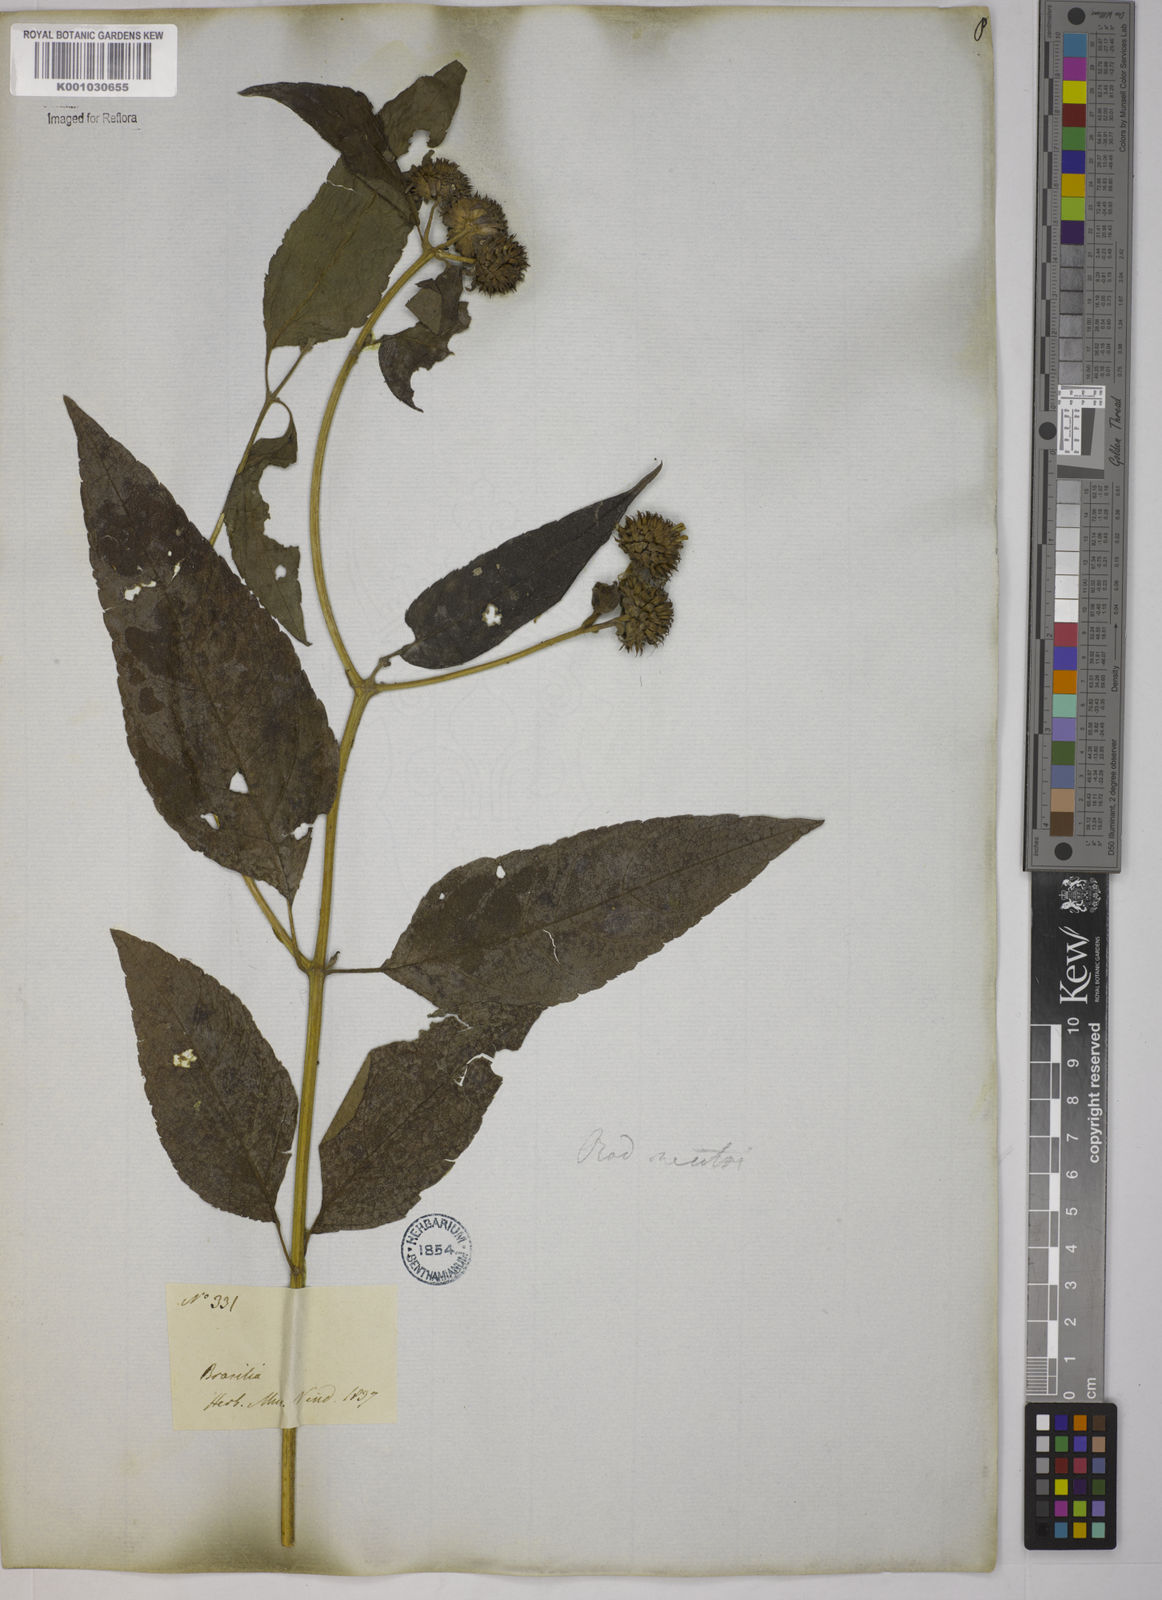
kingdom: Plantae
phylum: Tracheophyta
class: Magnoliopsida
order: Asterales
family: Asteraceae
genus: Tilesia
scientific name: Tilesia baccata
